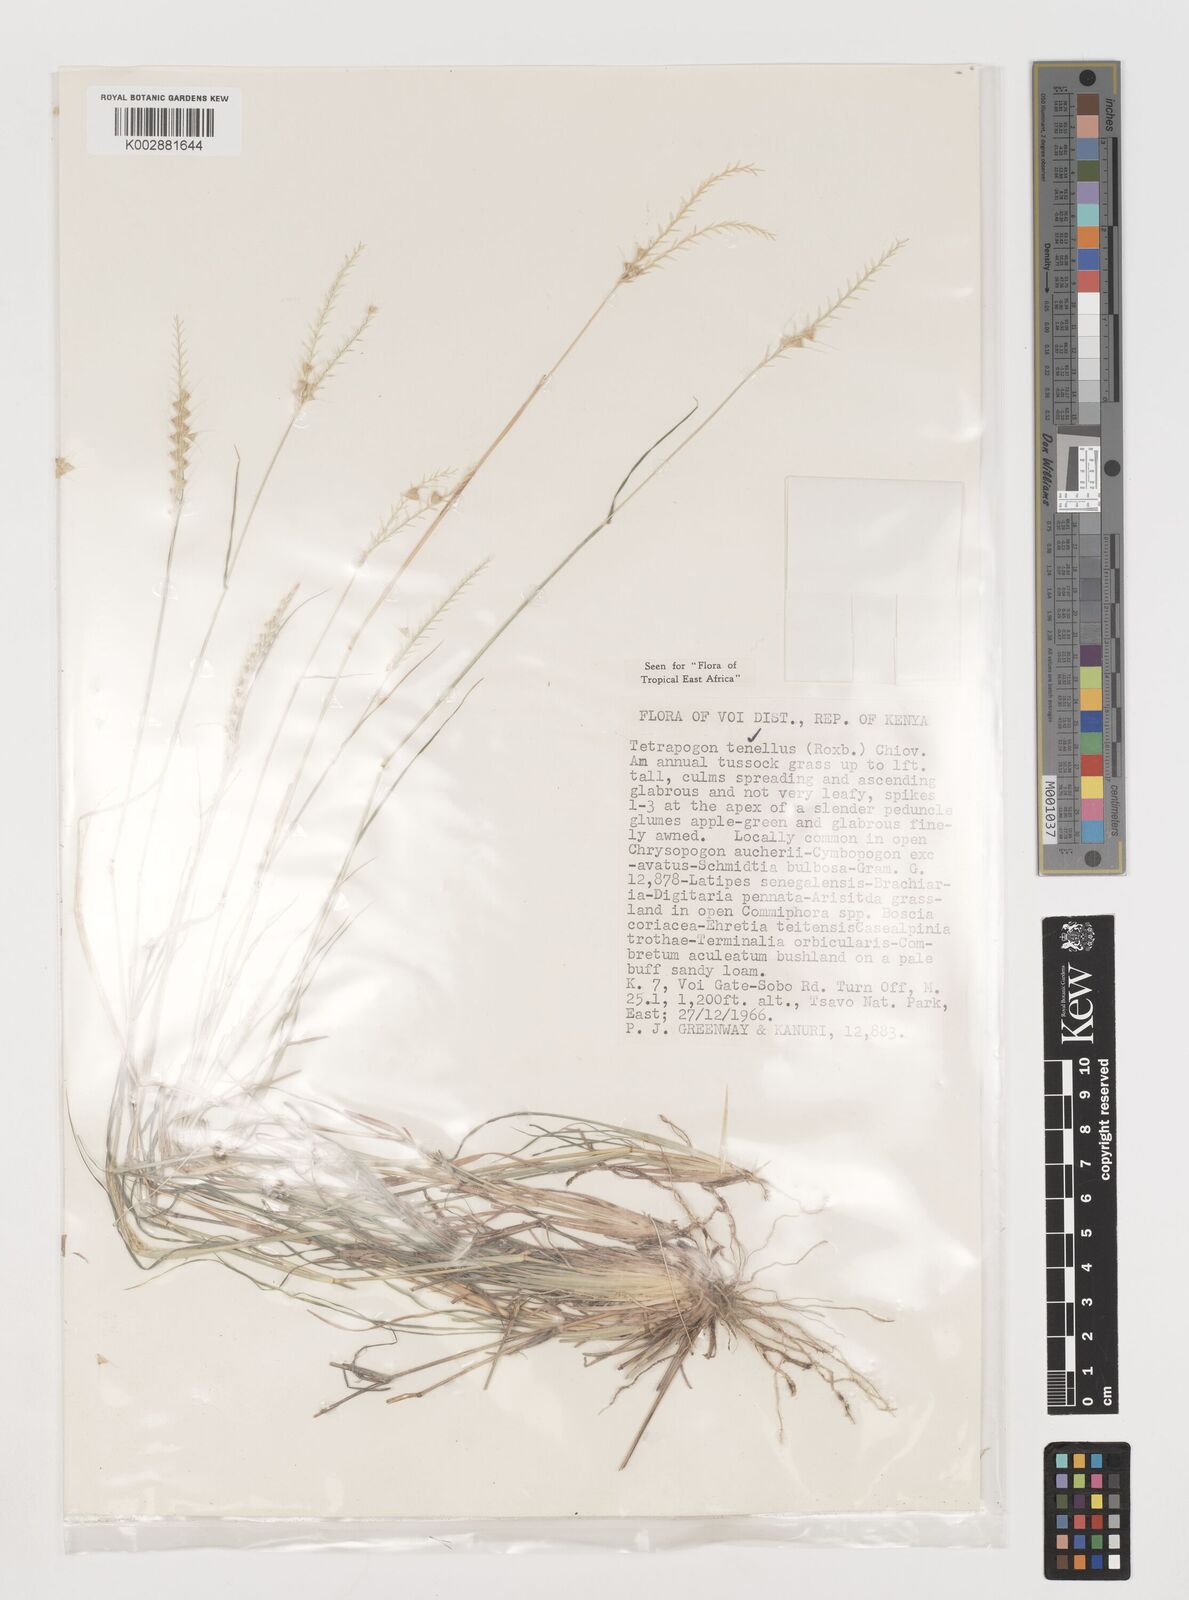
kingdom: Plantae
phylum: Tracheophyta
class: Liliopsida
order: Poales
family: Poaceae
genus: Tetrapogon
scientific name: Tetrapogon tenellus
